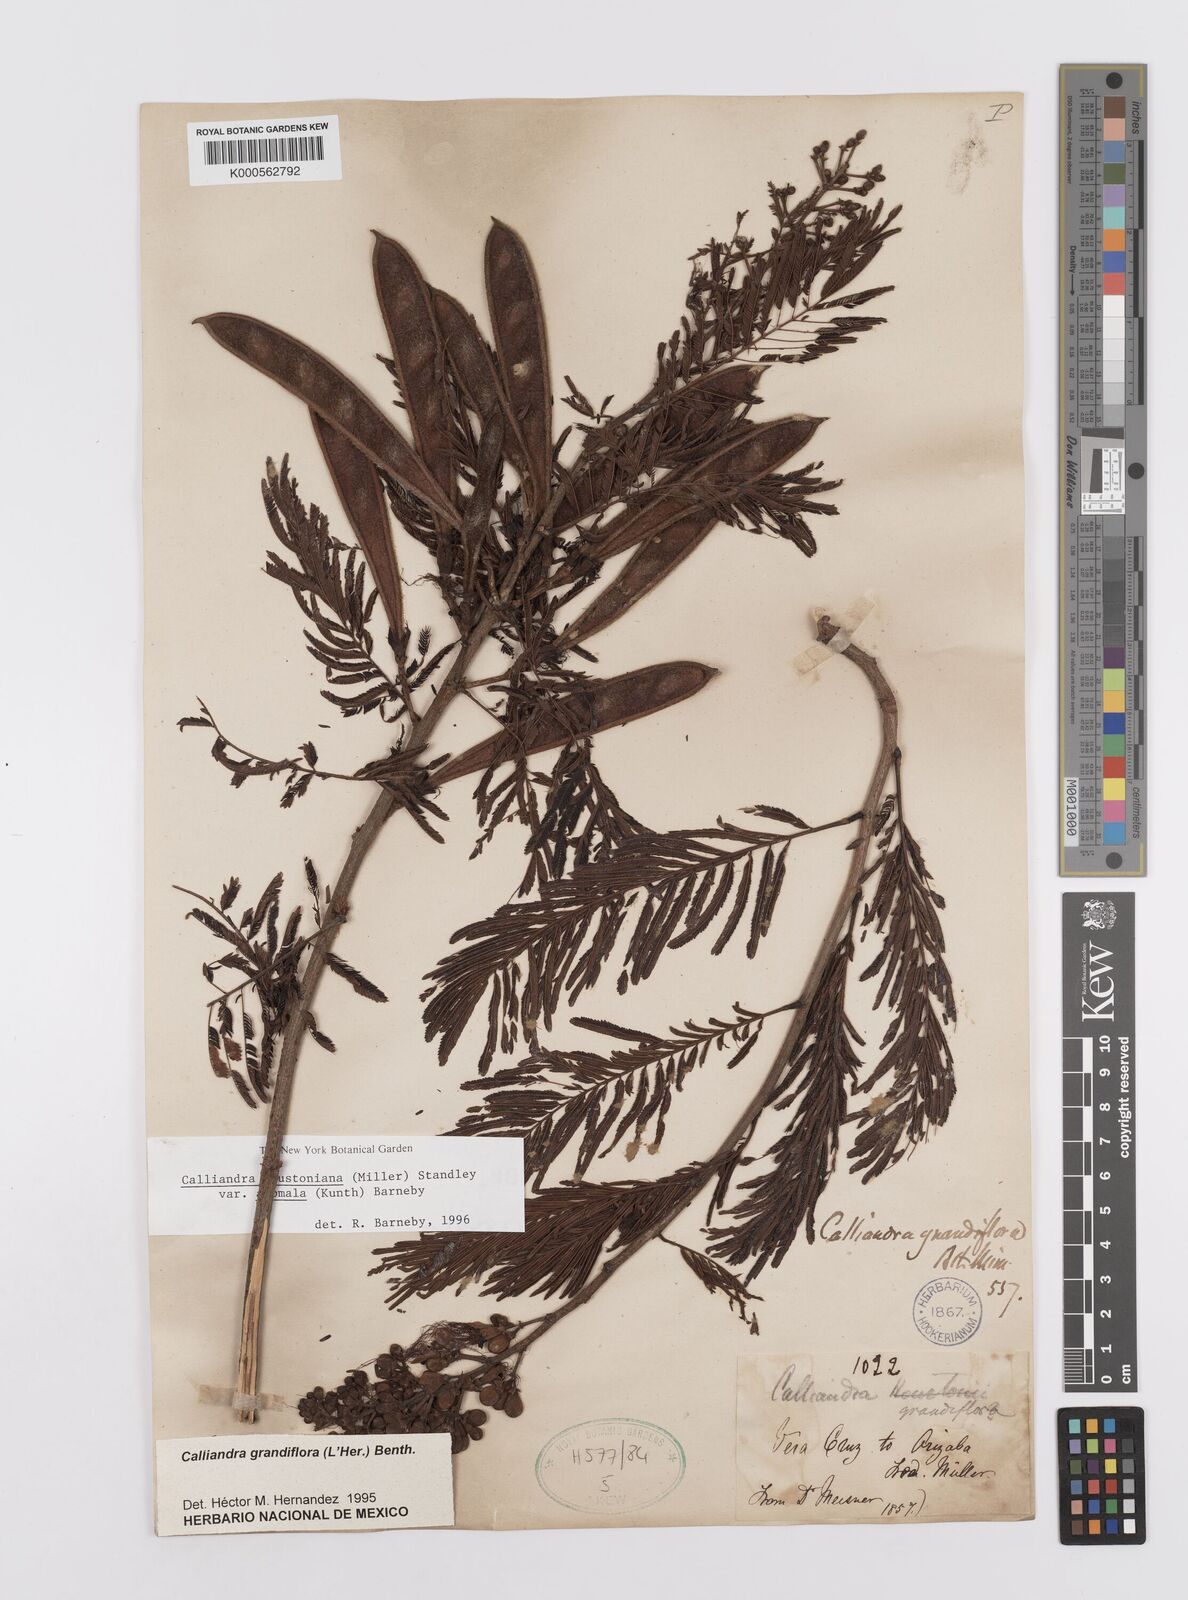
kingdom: Plantae
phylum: Tracheophyta
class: Magnoliopsida
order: Fabales
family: Fabaceae
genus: Calliandra
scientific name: Calliandra houstoniana
